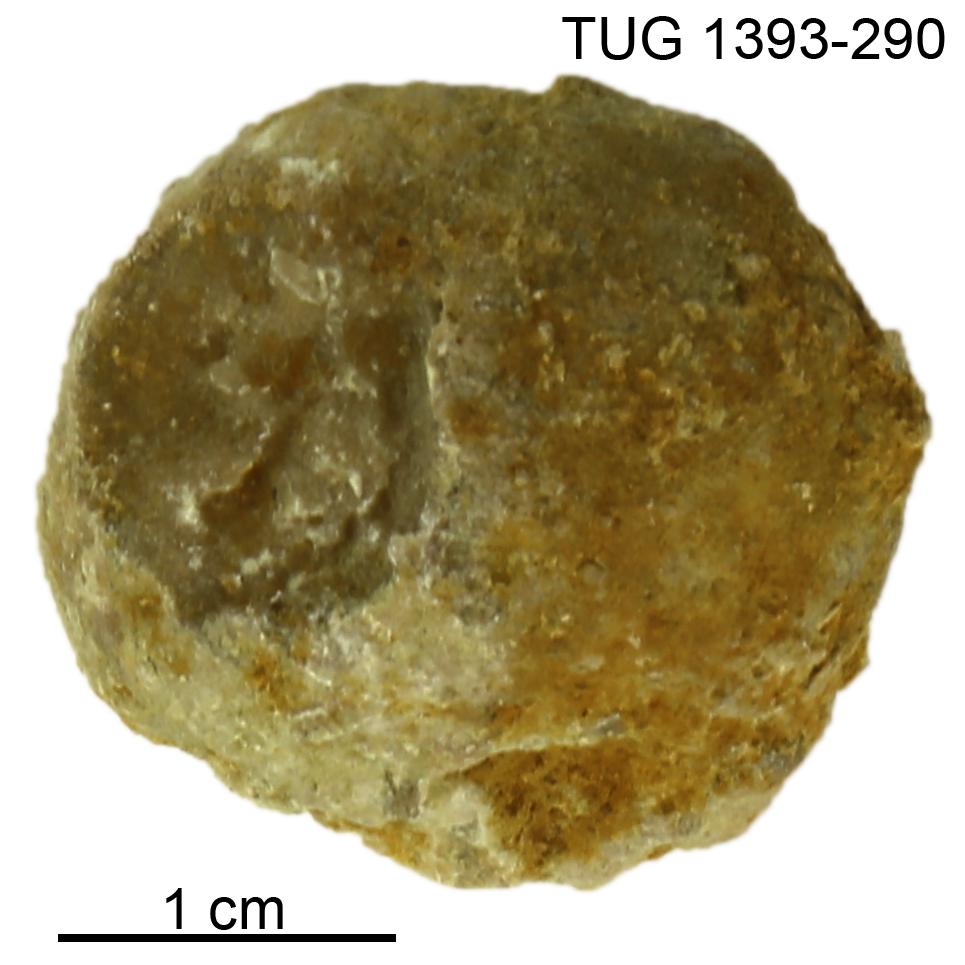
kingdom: Animalia
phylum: Bryozoa
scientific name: Bryozoa
